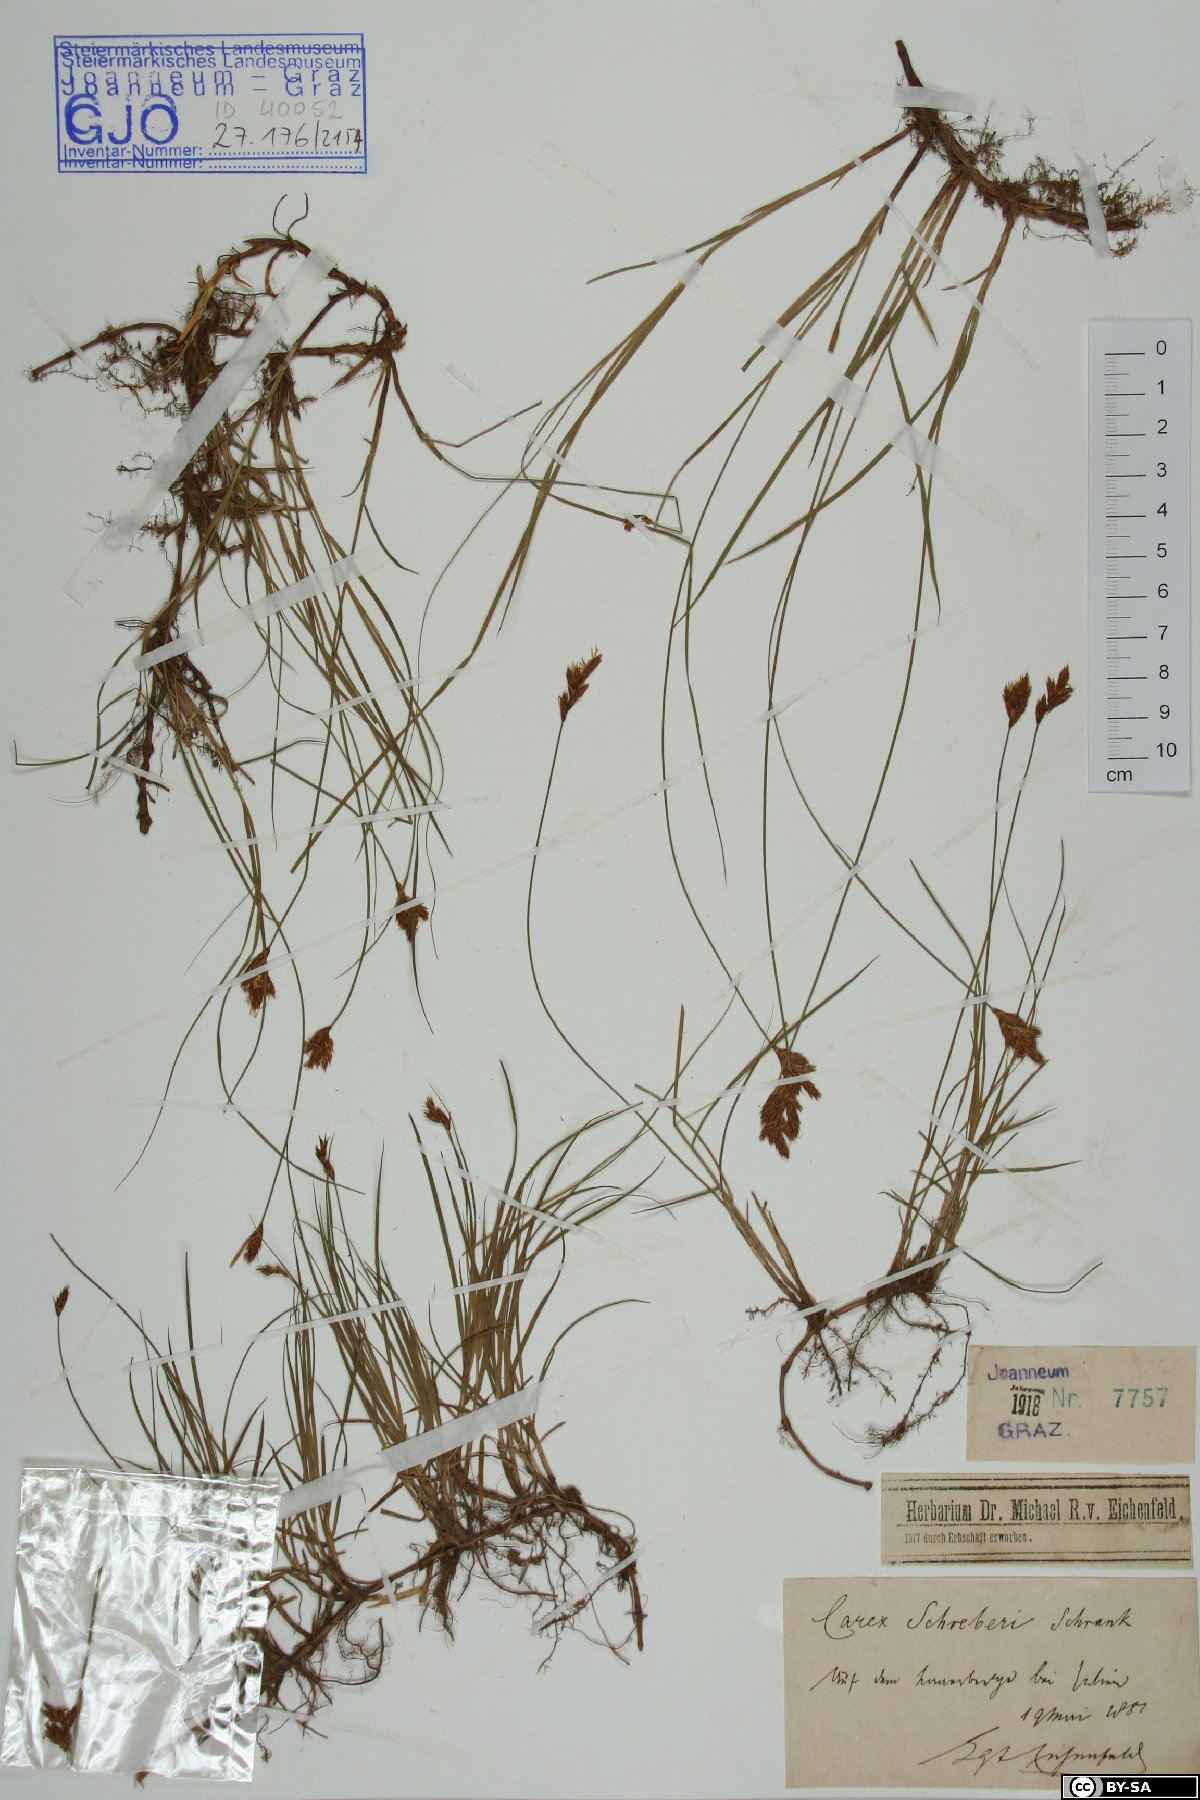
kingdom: Plantae
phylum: Tracheophyta
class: Liliopsida
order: Poales
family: Cyperaceae
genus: Carex
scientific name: Carex praecox
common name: Early sedge
